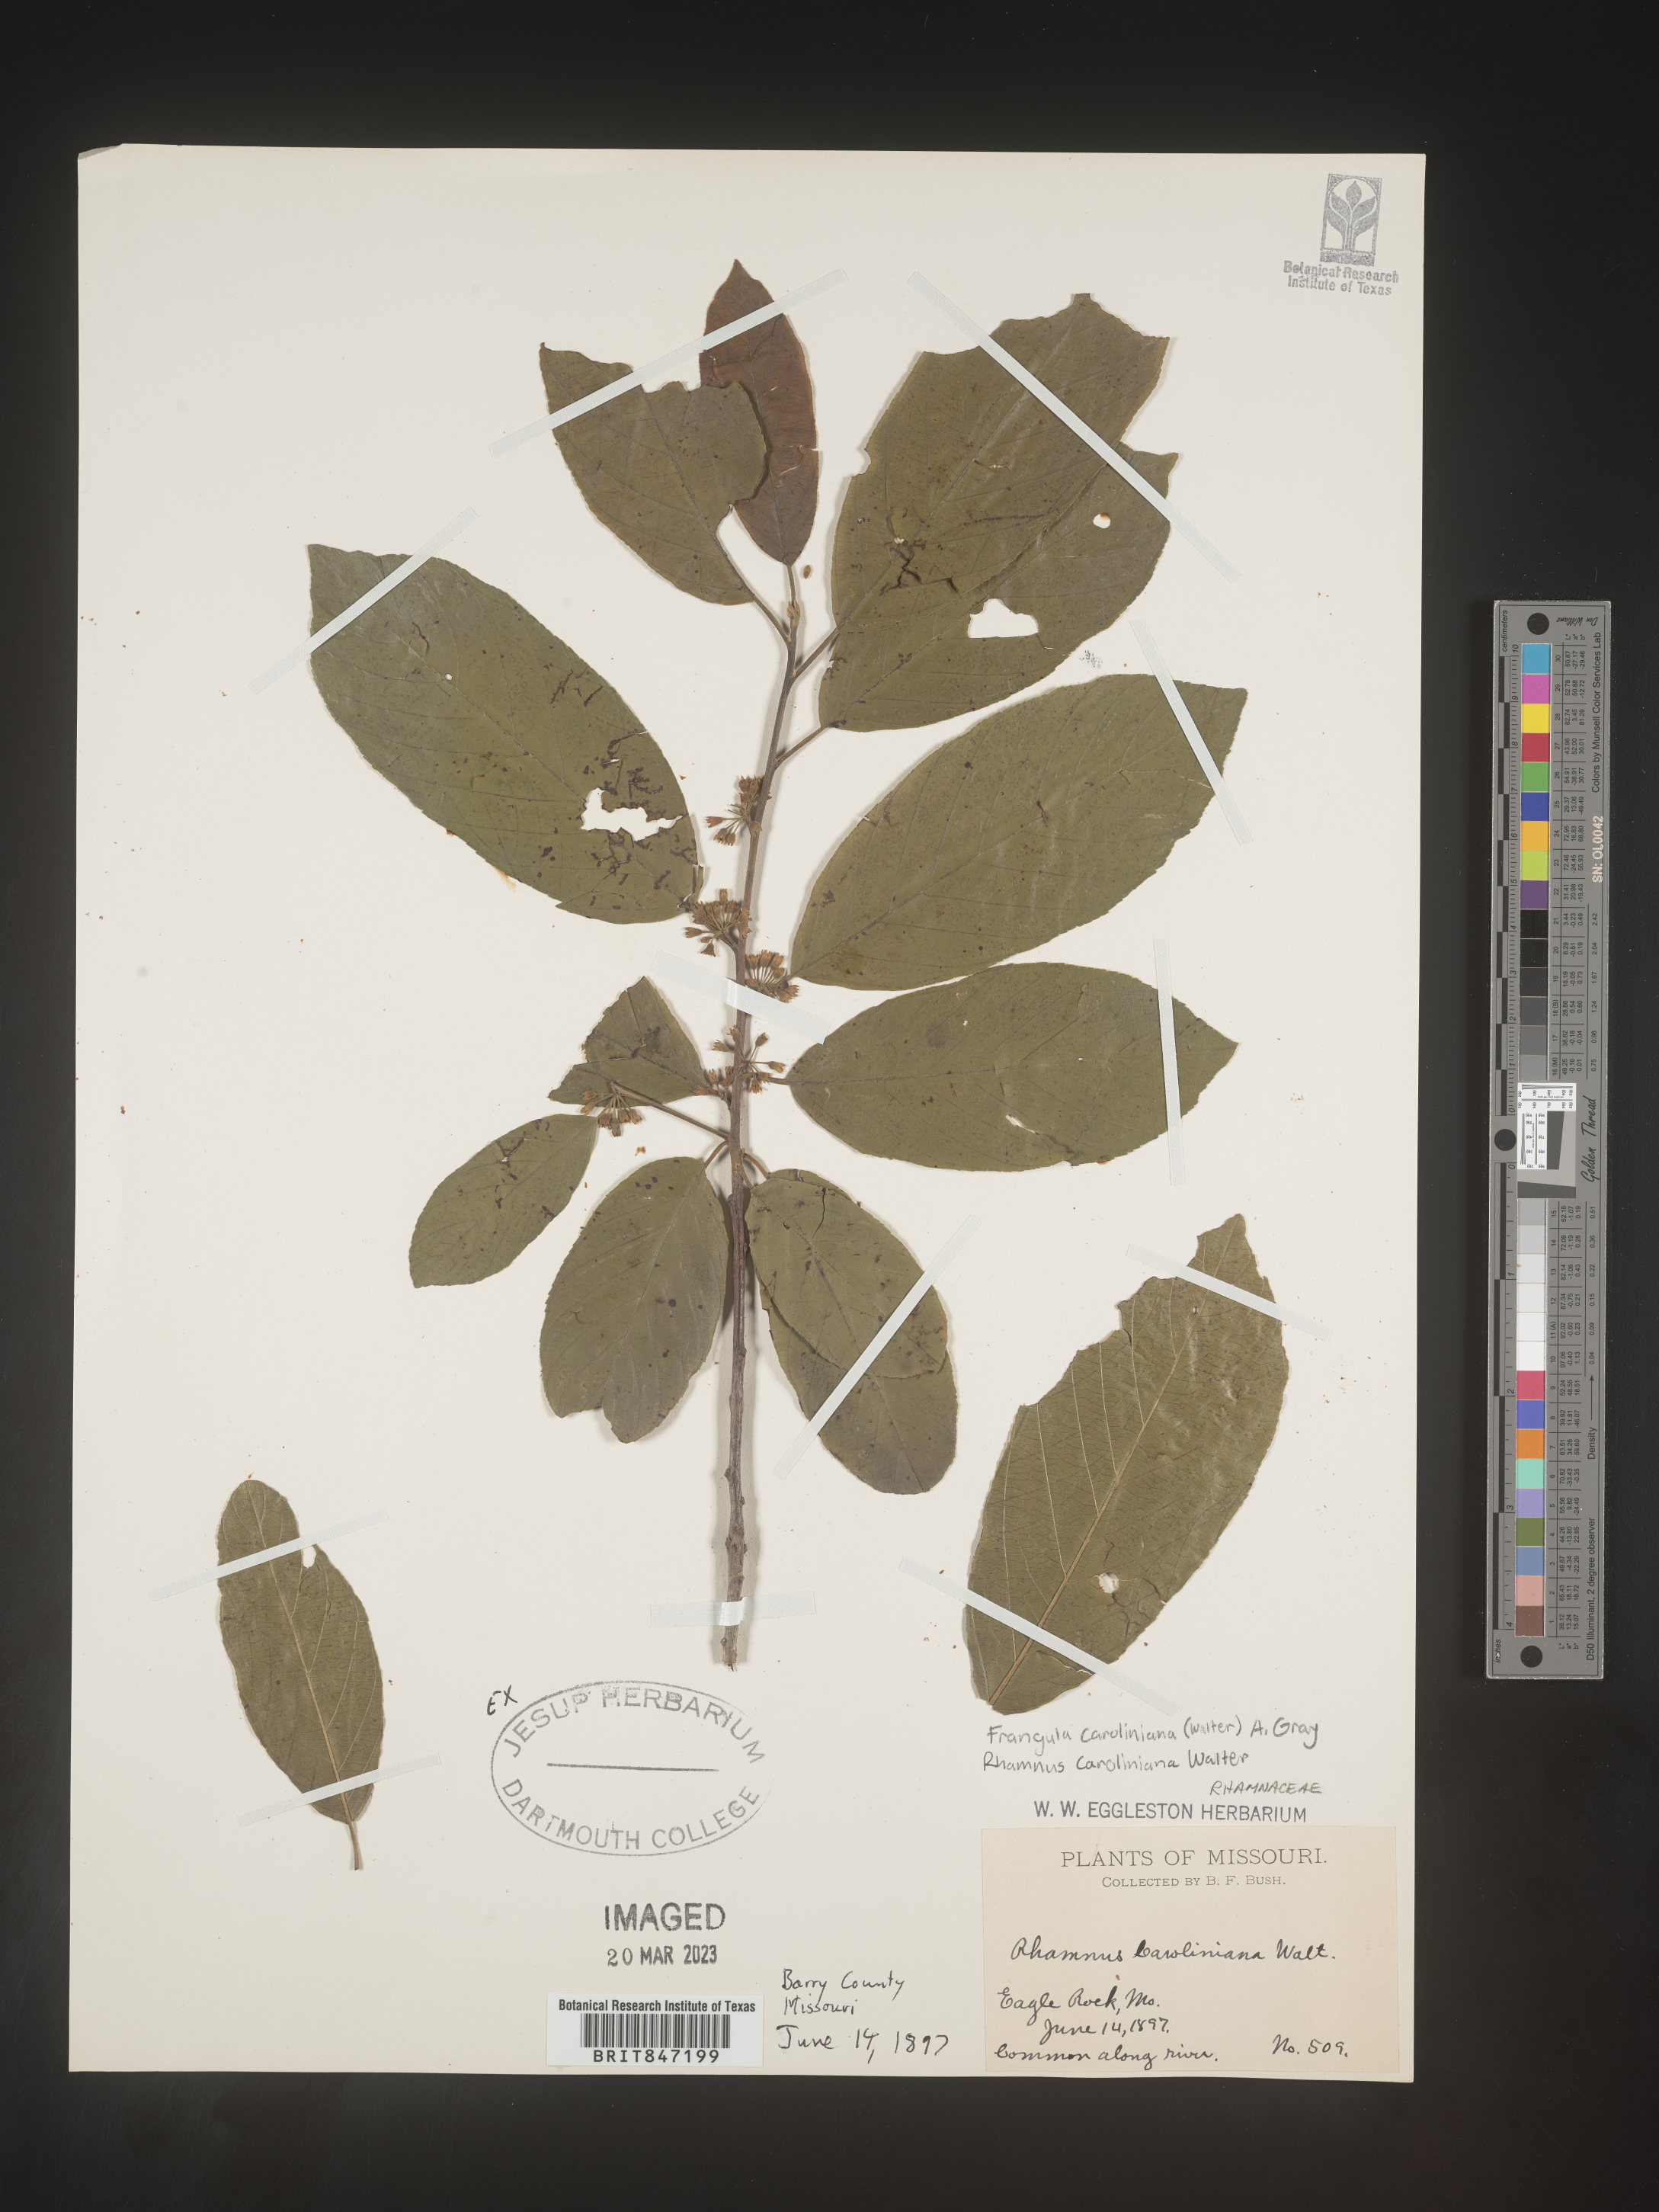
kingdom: Plantae
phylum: Tracheophyta
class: Magnoliopsida
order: Rosales
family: Rhamnaceae
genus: Frangula
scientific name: Frangula
